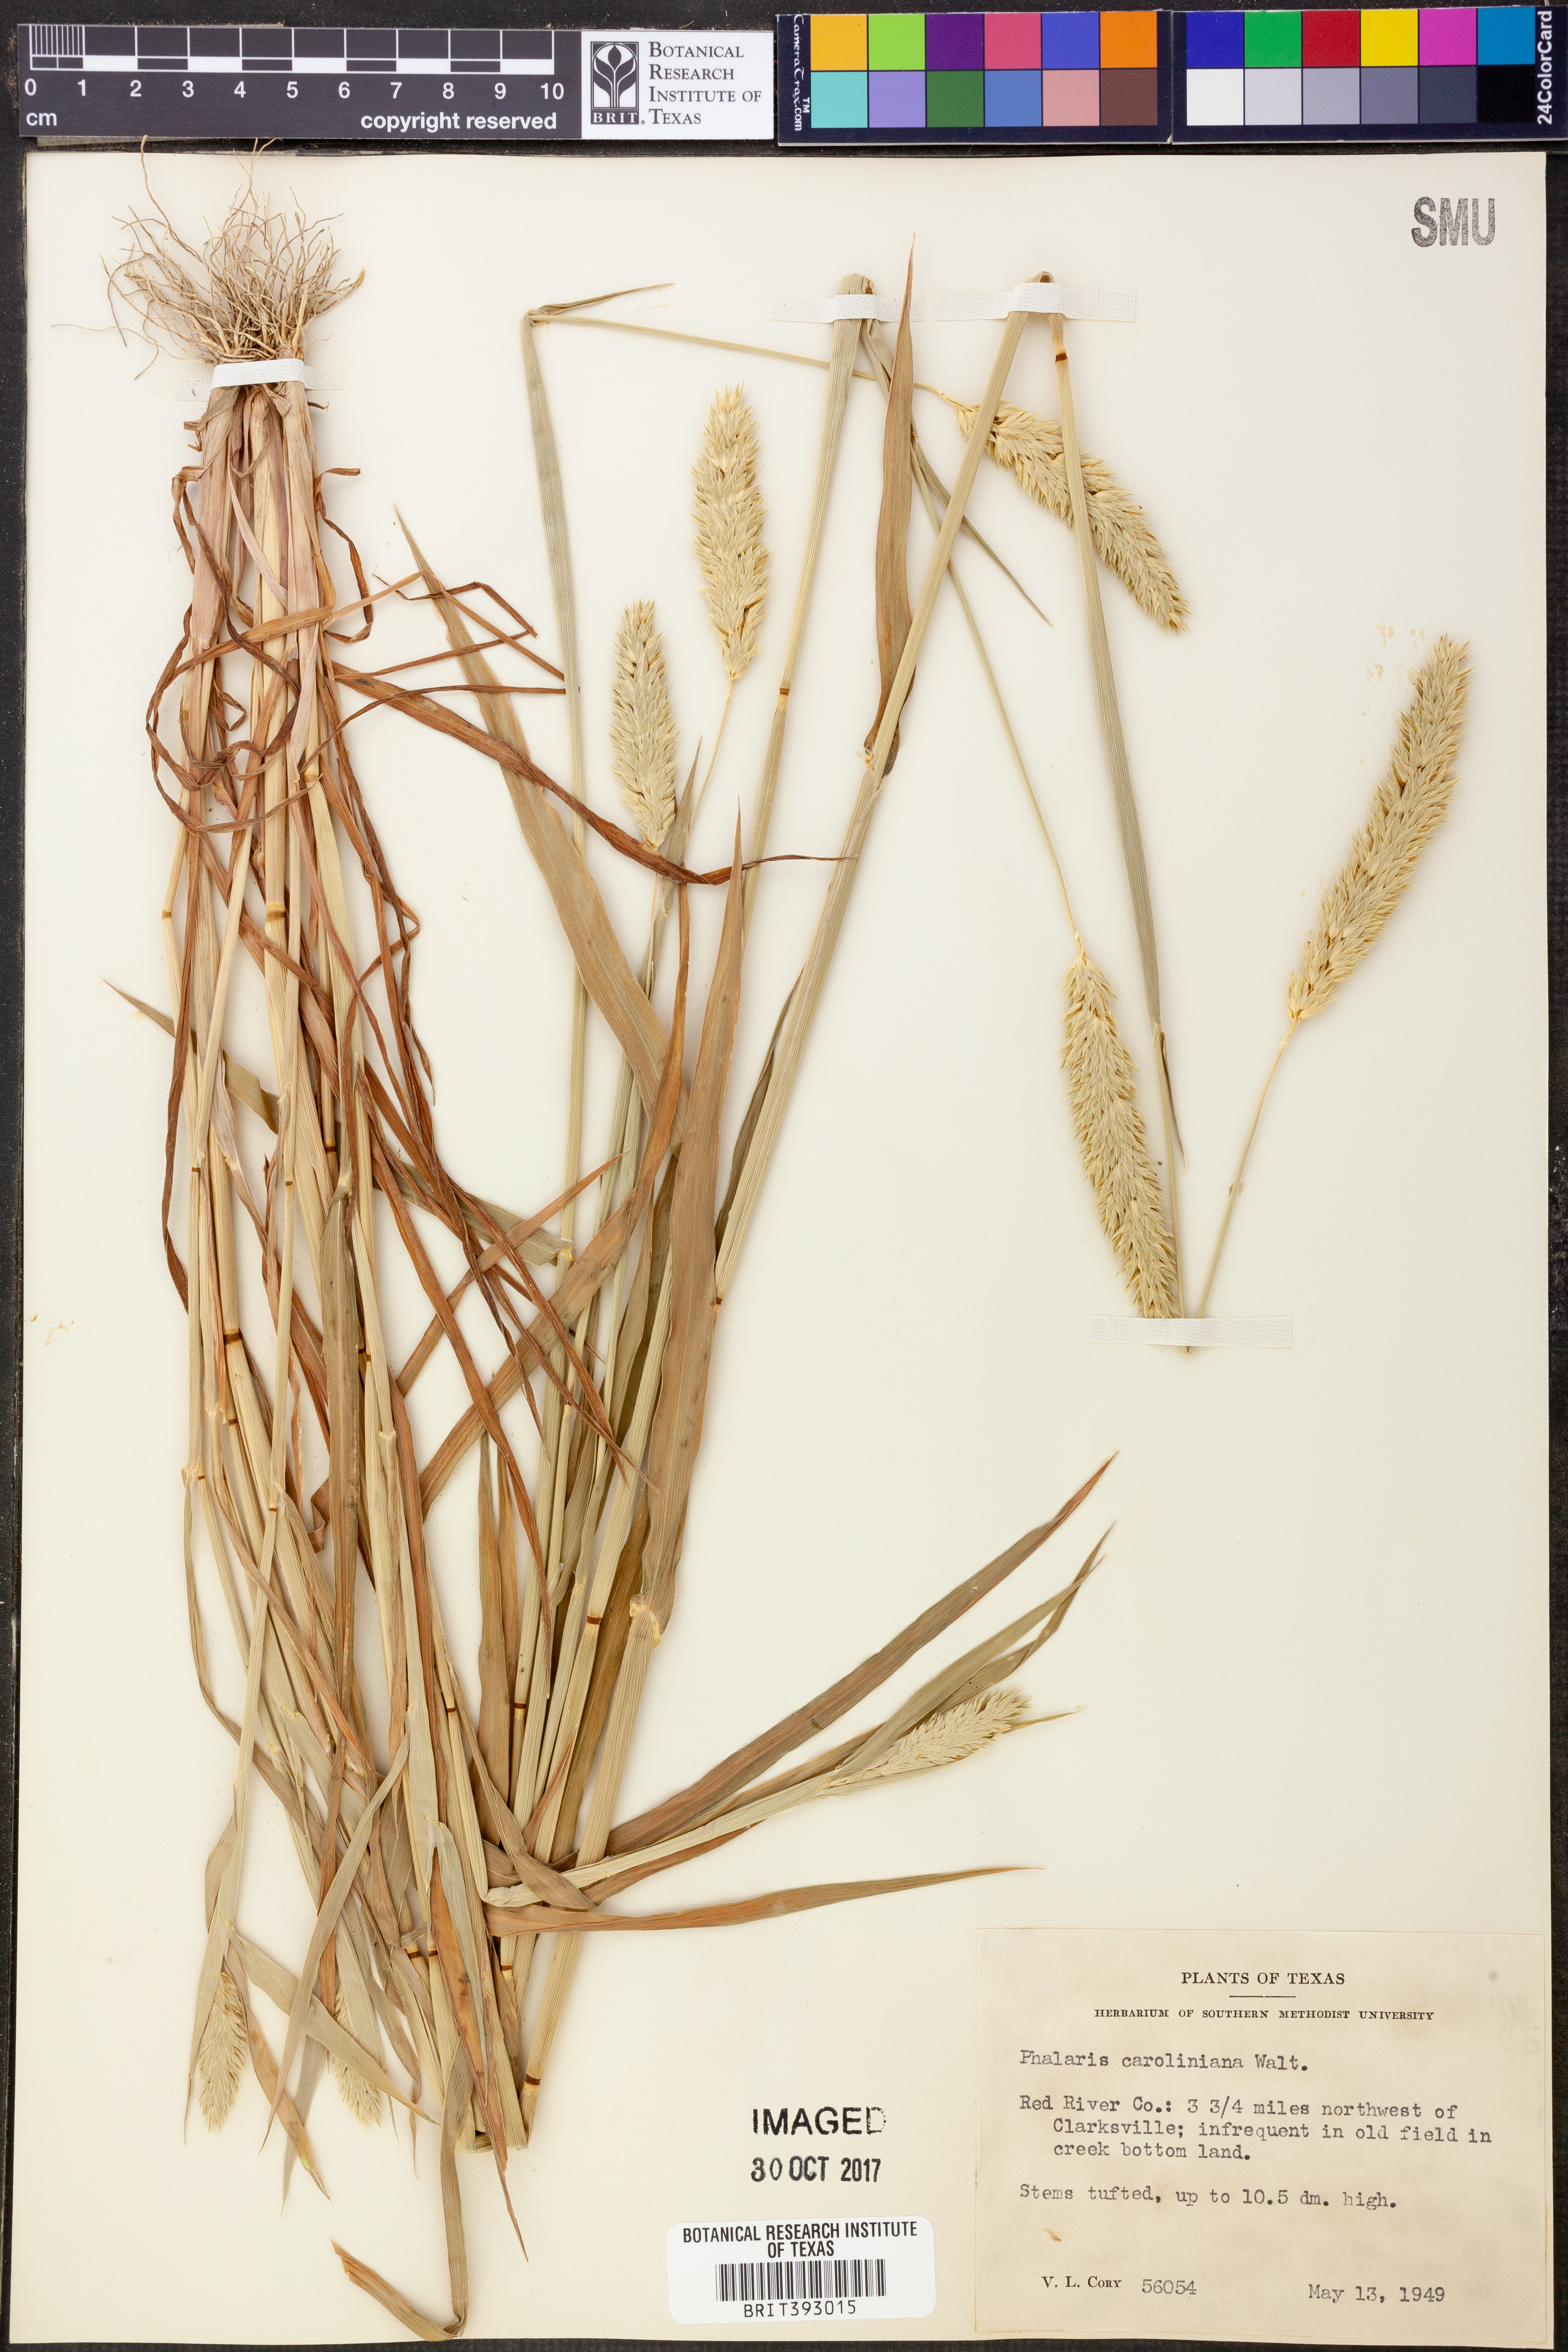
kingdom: Plantae
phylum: Tracheophyta
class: Liliopsida
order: Poales
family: Poaceae
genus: Phalaris
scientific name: Phalaris caroliniana
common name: May grass
